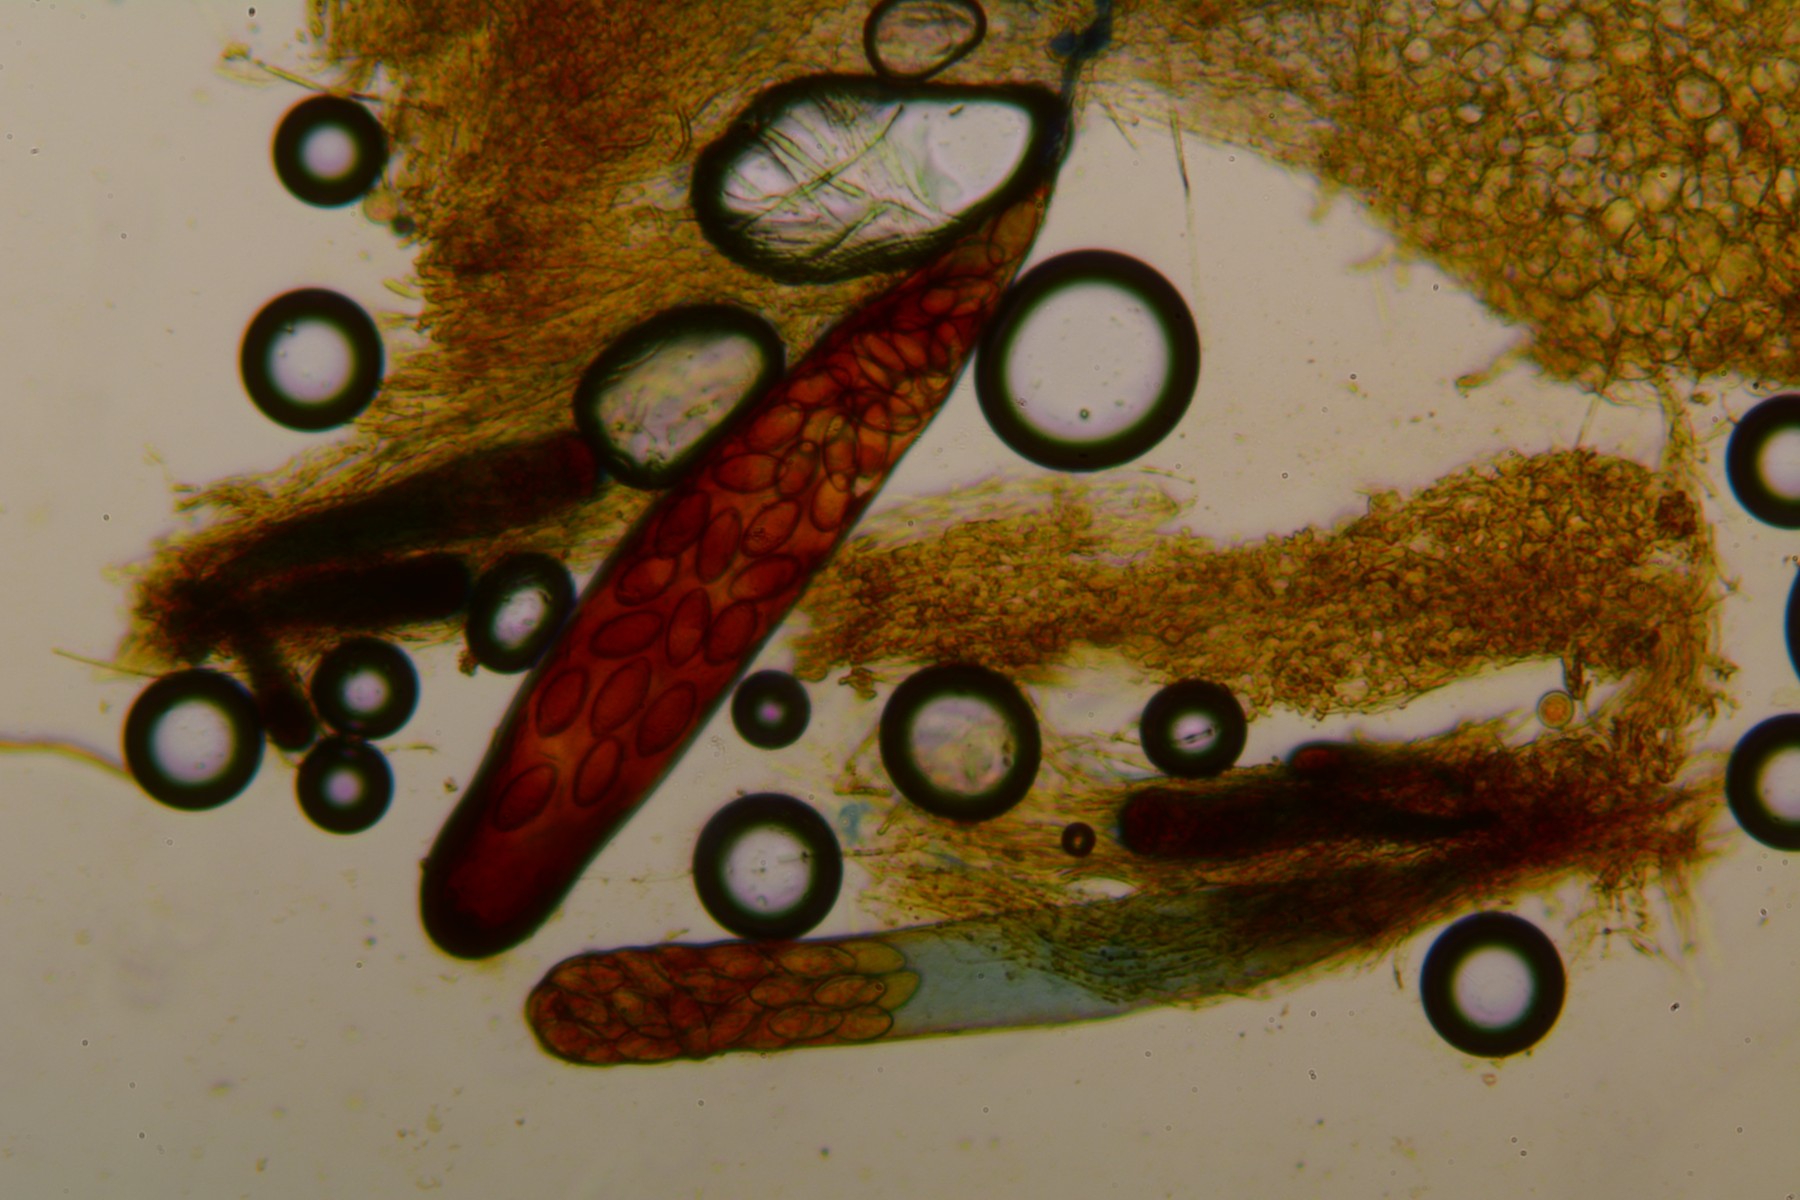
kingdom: Fungi
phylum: Ascomycota
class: Pezizomycetes
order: Pezizales
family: Ascobolaceae
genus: Thecotheus
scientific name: Thecotheus pelletieri
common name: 32-sporet prikbæger
